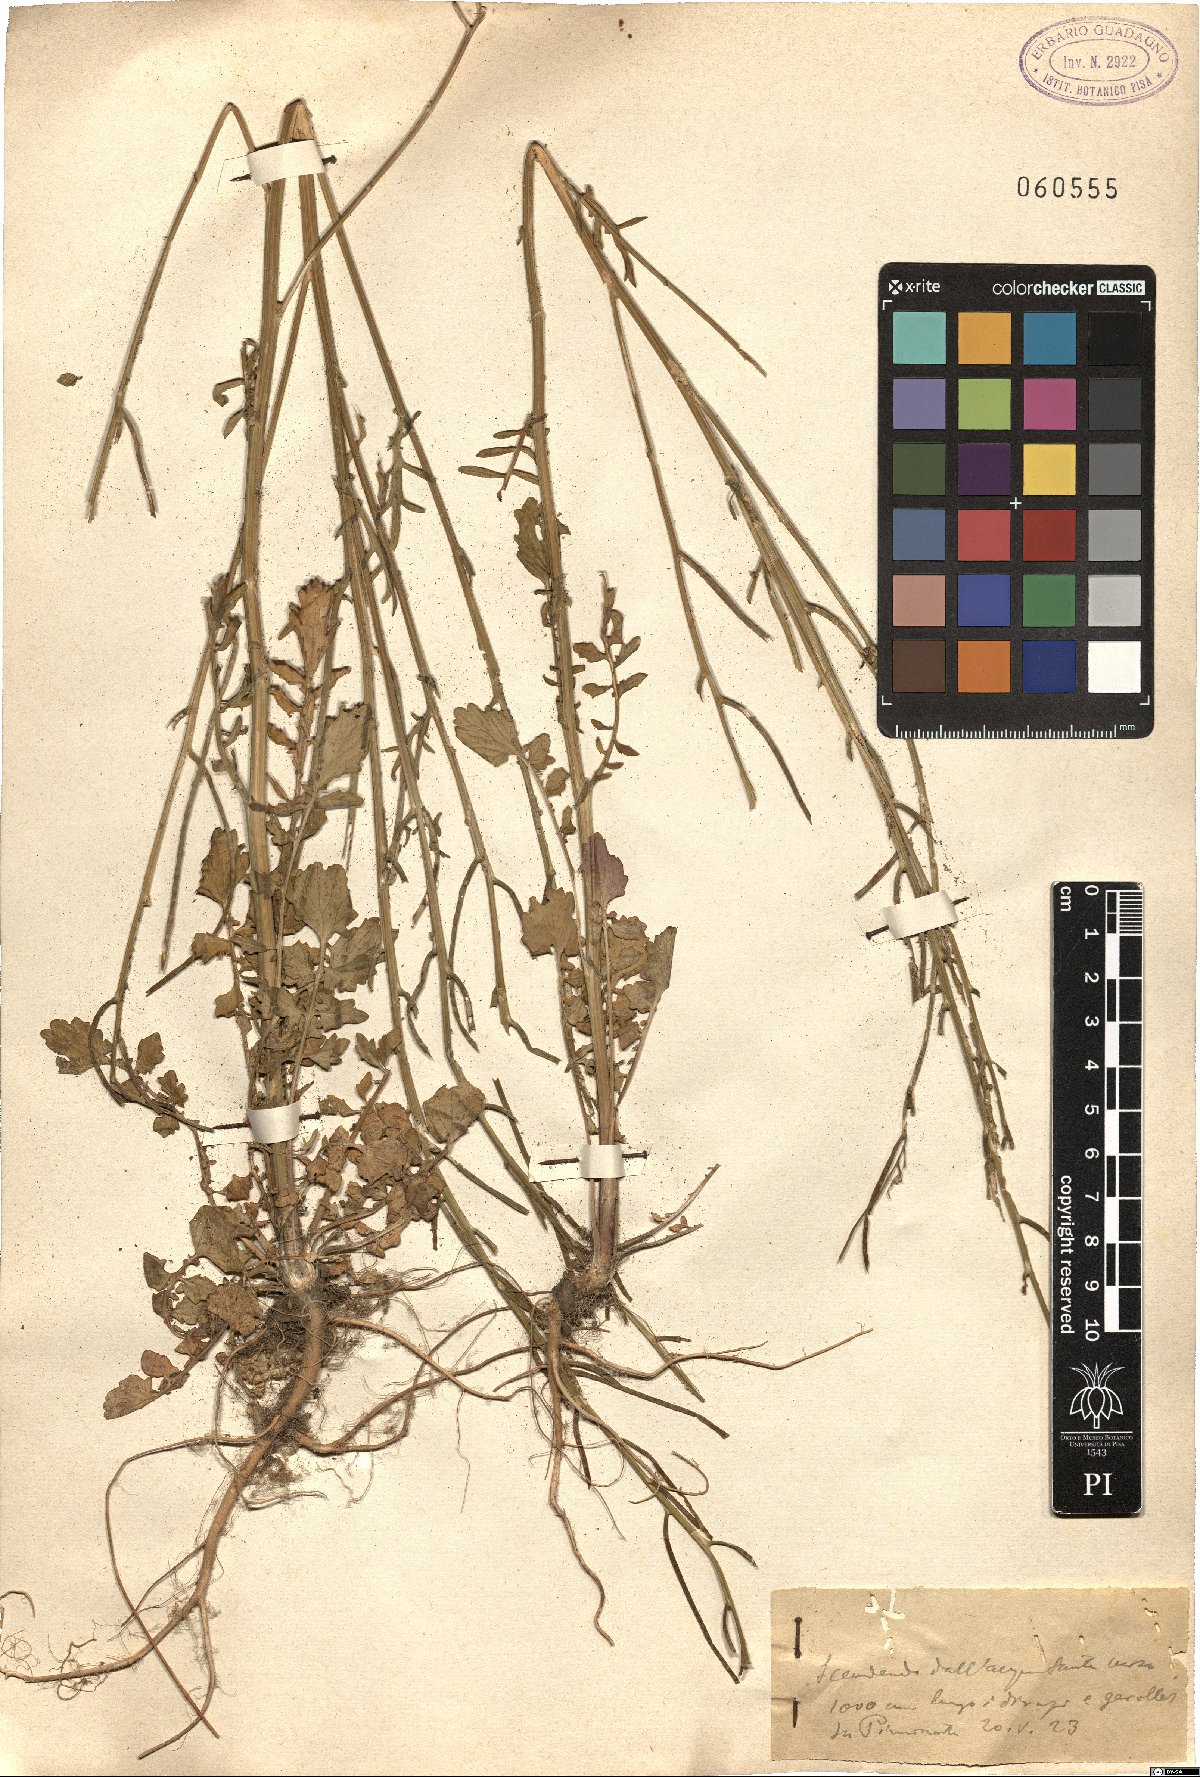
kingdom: Plantae
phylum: Tracheophyta
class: Magnoliopsida
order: Brassicales
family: Brassicaceae
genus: Sinapis
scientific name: Sinapis
